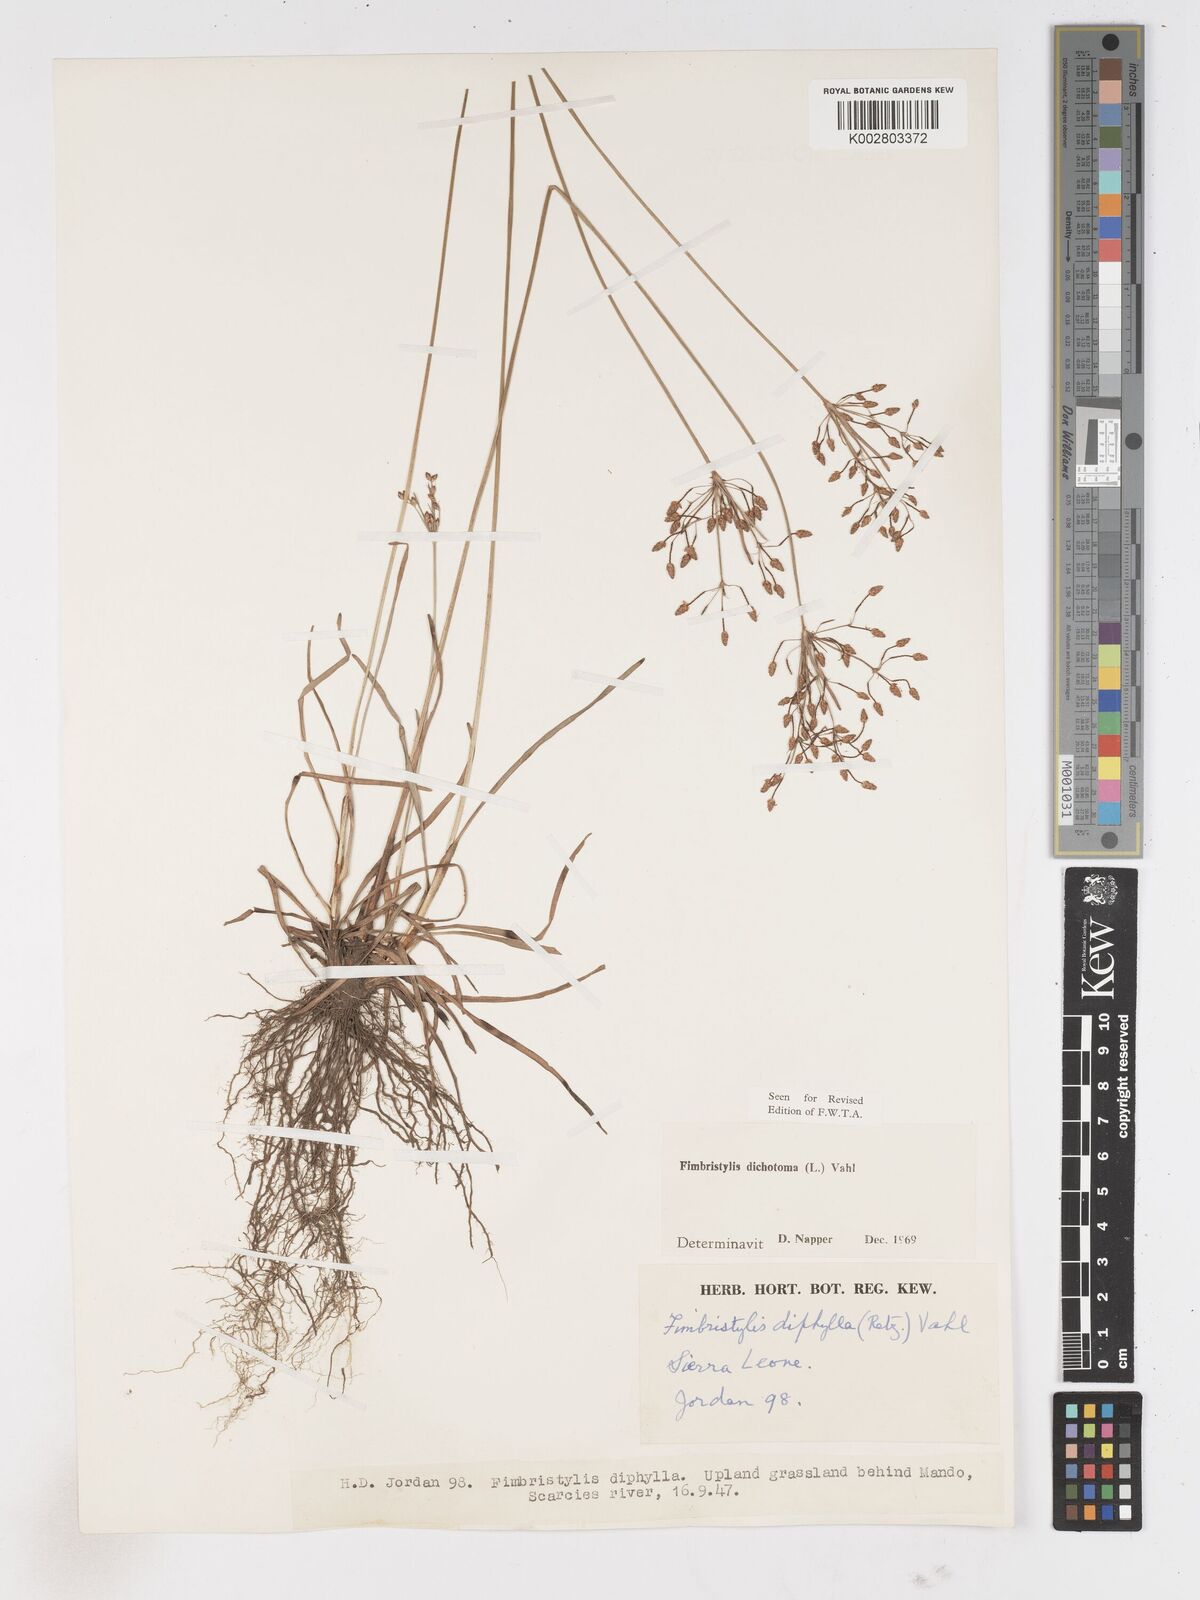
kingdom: Plantae
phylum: Tracheophyta
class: Liliopsida
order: Poales
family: Cyperaceae
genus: Fimbristylis
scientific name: Fimbristylis dichotoma
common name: Forked fimbry
